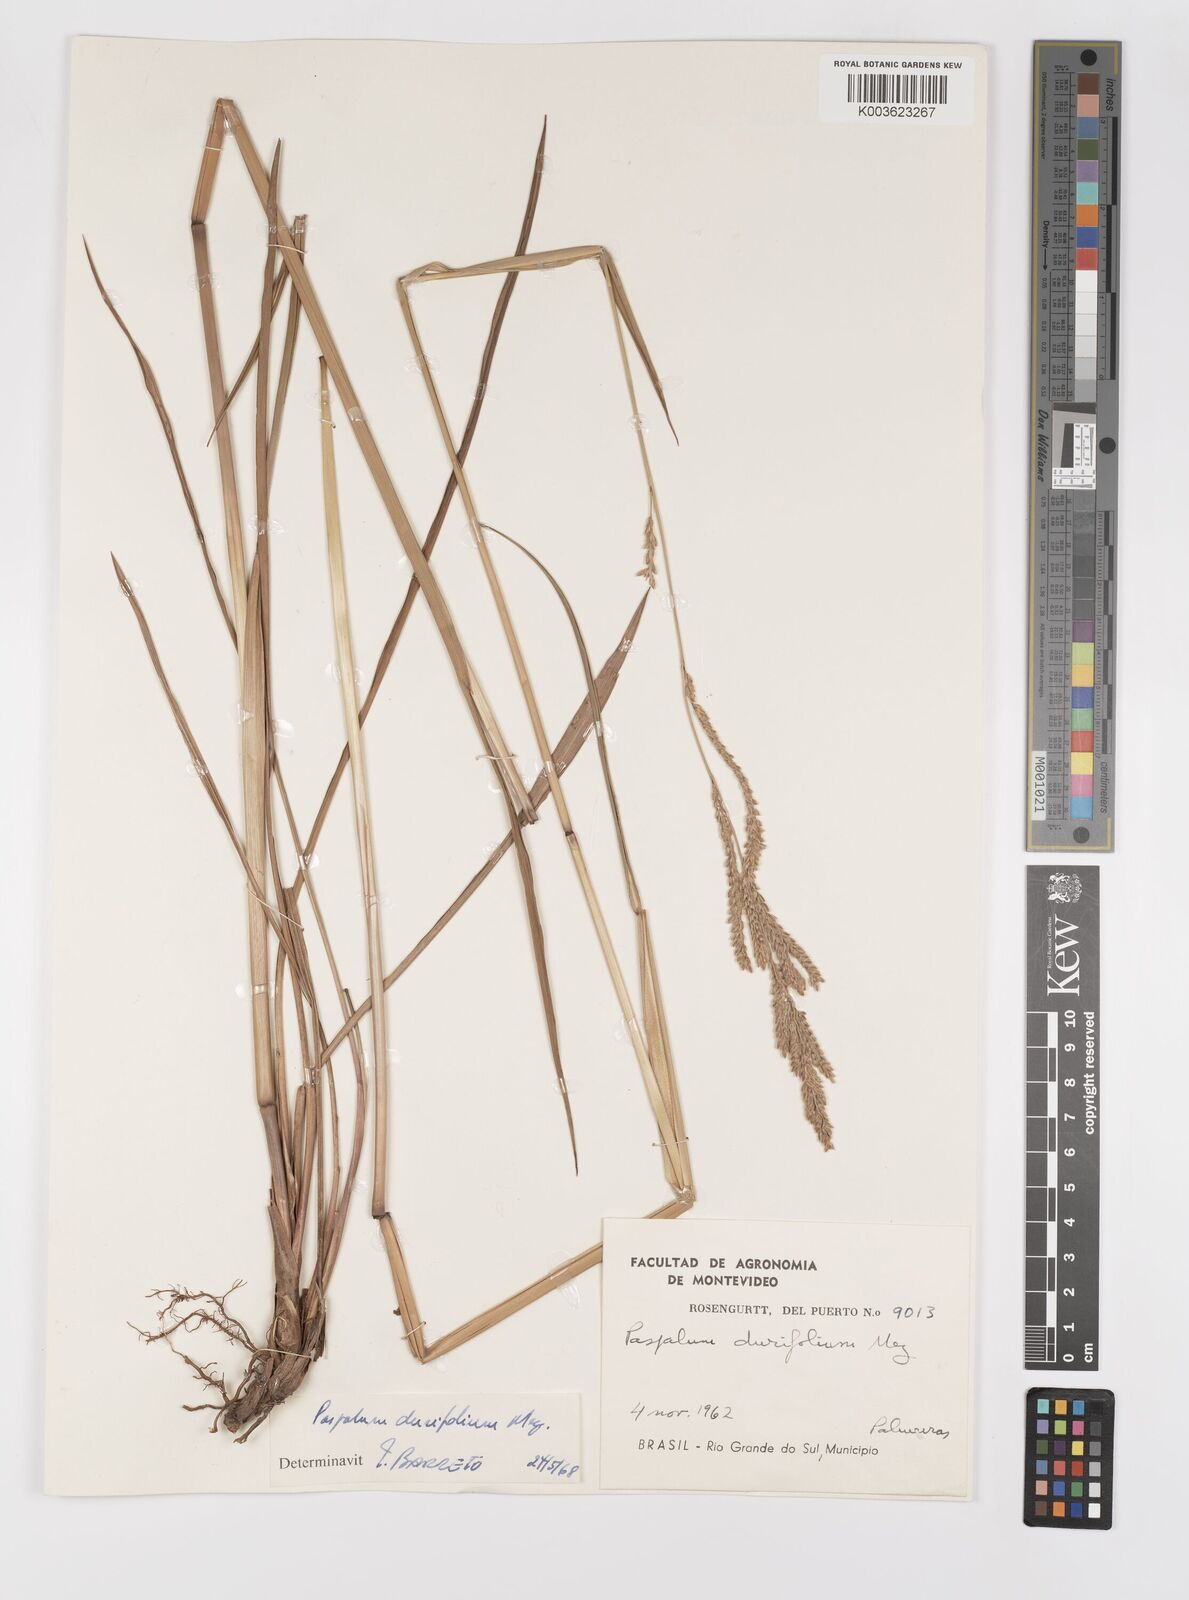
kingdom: Plantae
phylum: Tracheophyta
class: Liliopsida
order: Poales
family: Poaceae
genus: Paspalum
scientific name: Paspalum durifolium
